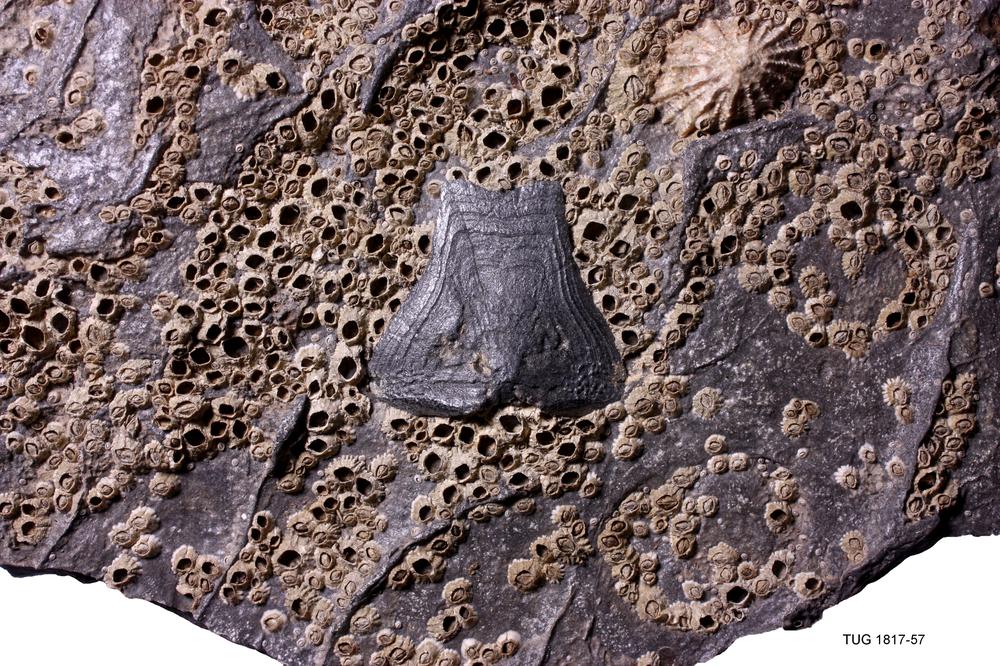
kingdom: Animalia
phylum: Chordata
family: Coccosteidae
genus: Dickosteus
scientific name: Dickosteus threiplandi
